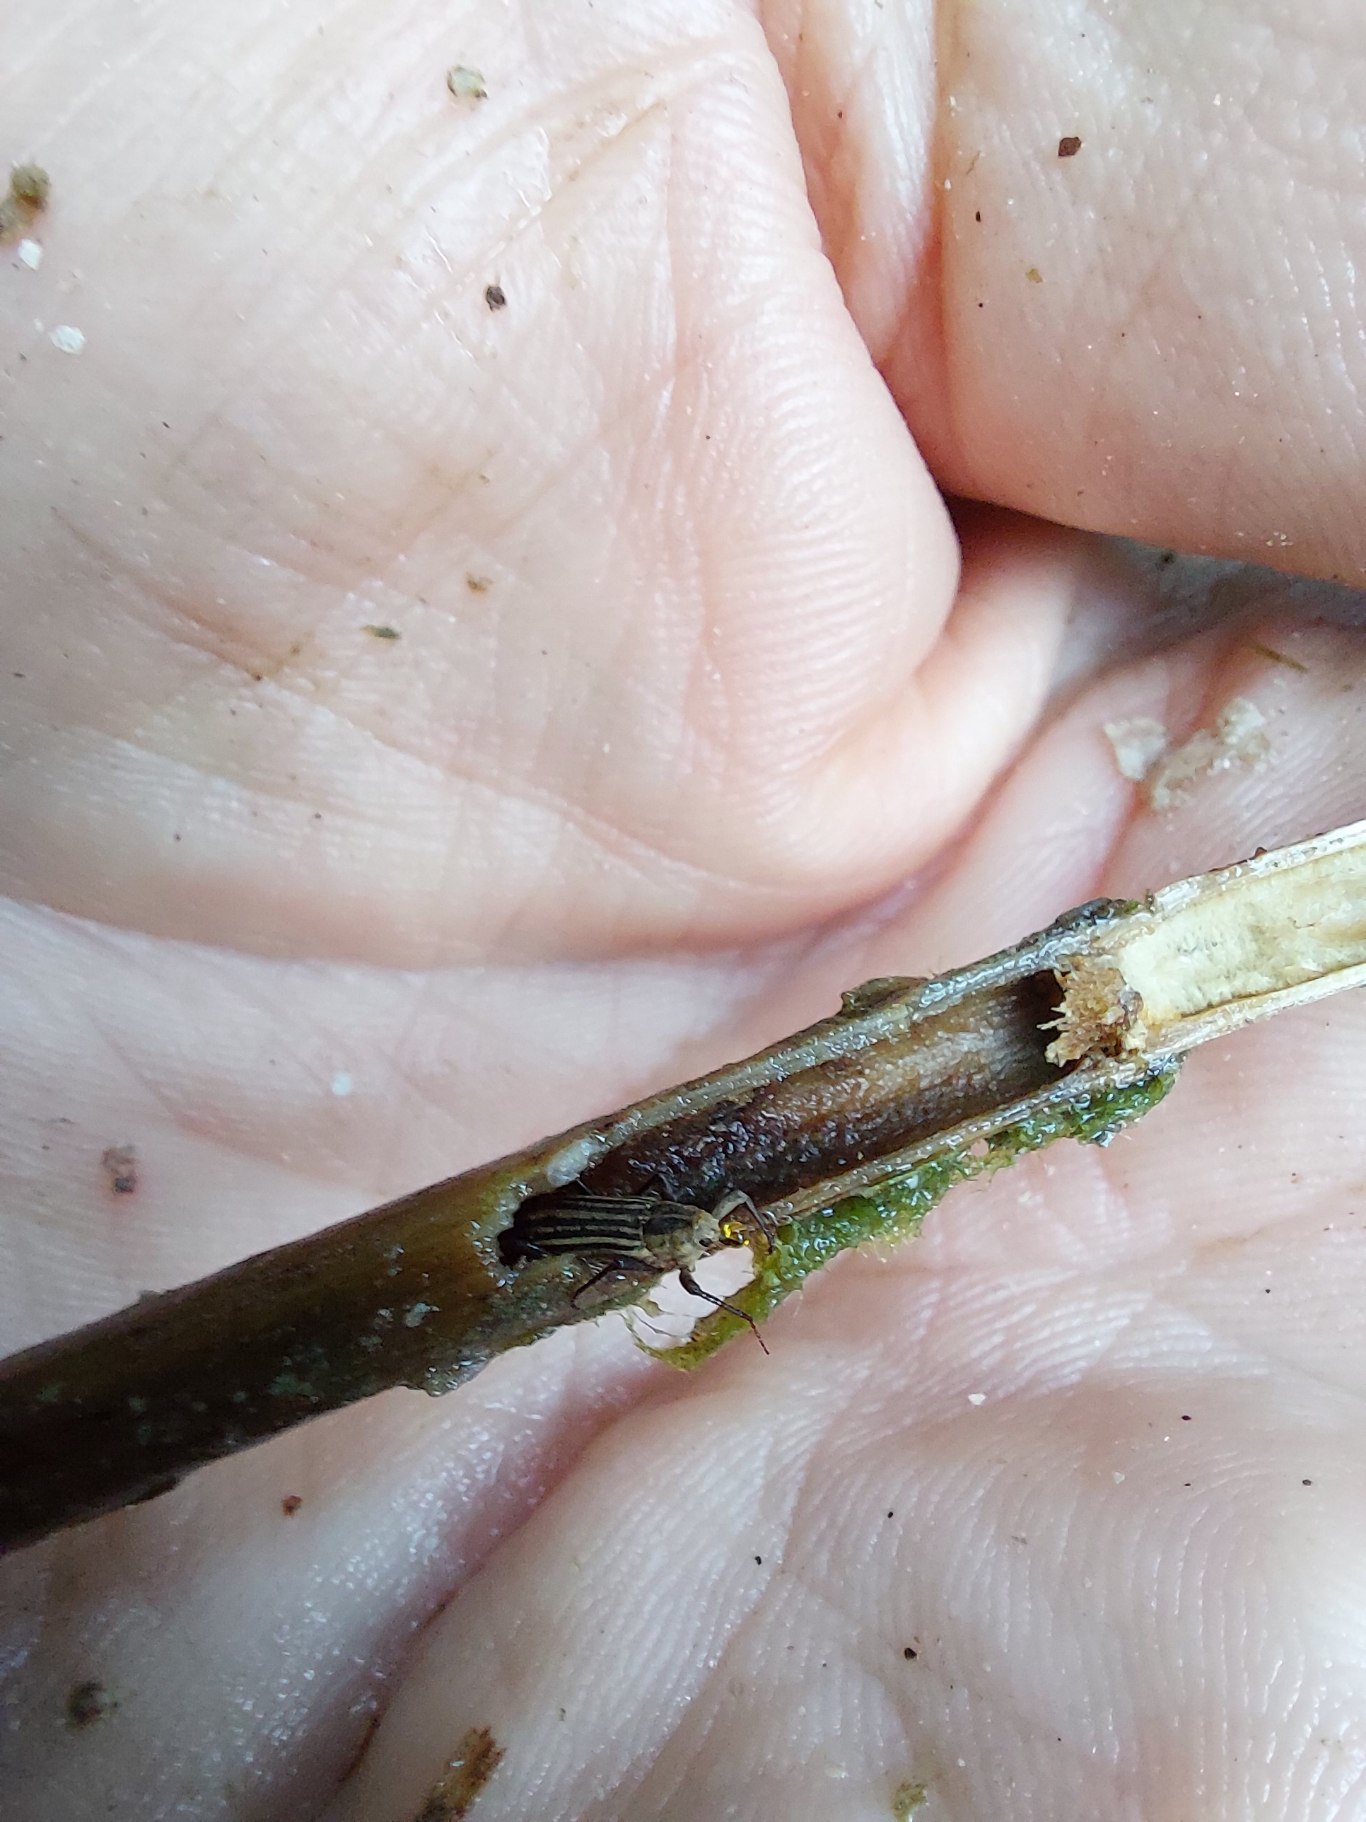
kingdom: Animalia
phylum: Arthropoda
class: Insecta
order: Coleoptera
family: Curculionidae
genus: Bagous
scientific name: Bagous elegans
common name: Stråmand
